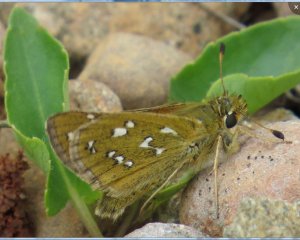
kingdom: Animalia
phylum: Arthropoda
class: Insecta
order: Lepidoptera
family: Hesperiidae
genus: Hesperia
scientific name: Hesperia comma
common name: Common Branded Skipper
